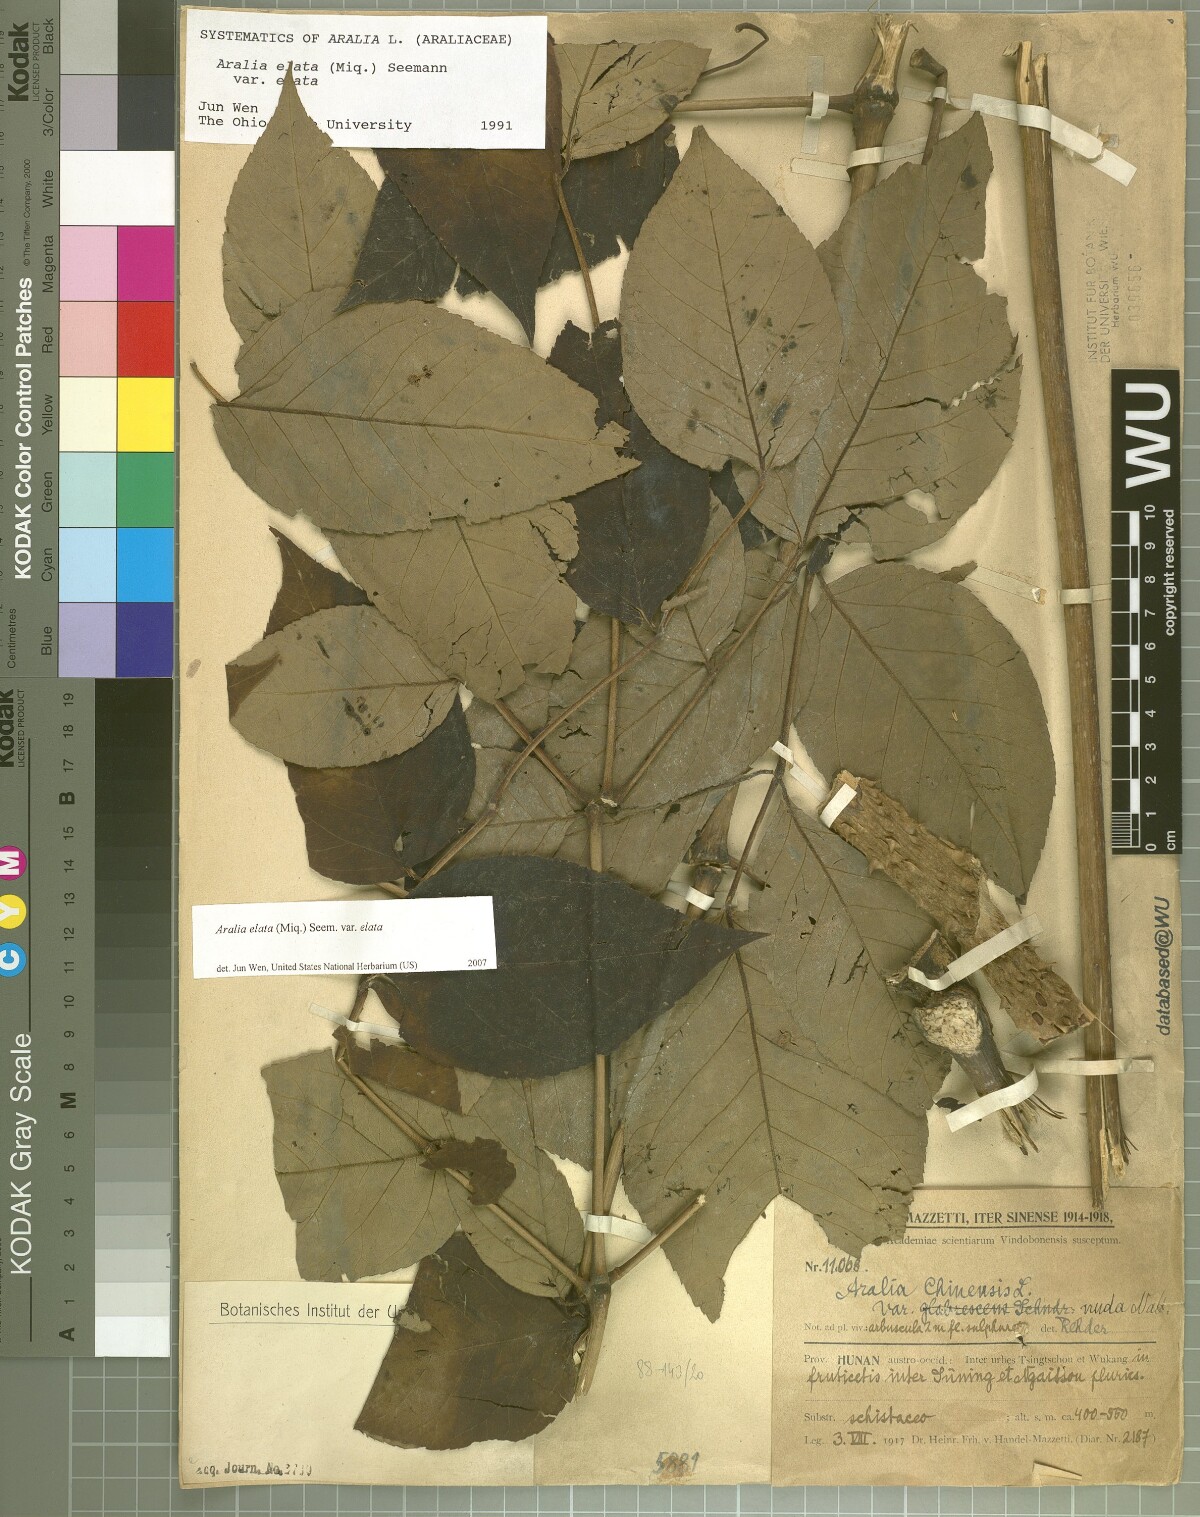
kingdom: Plantae
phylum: Tracheophyta
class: Magnoliopsida
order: Apiales
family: Araliaceae
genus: Aralia
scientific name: Aralia elata
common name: Japanese angelica-tree
